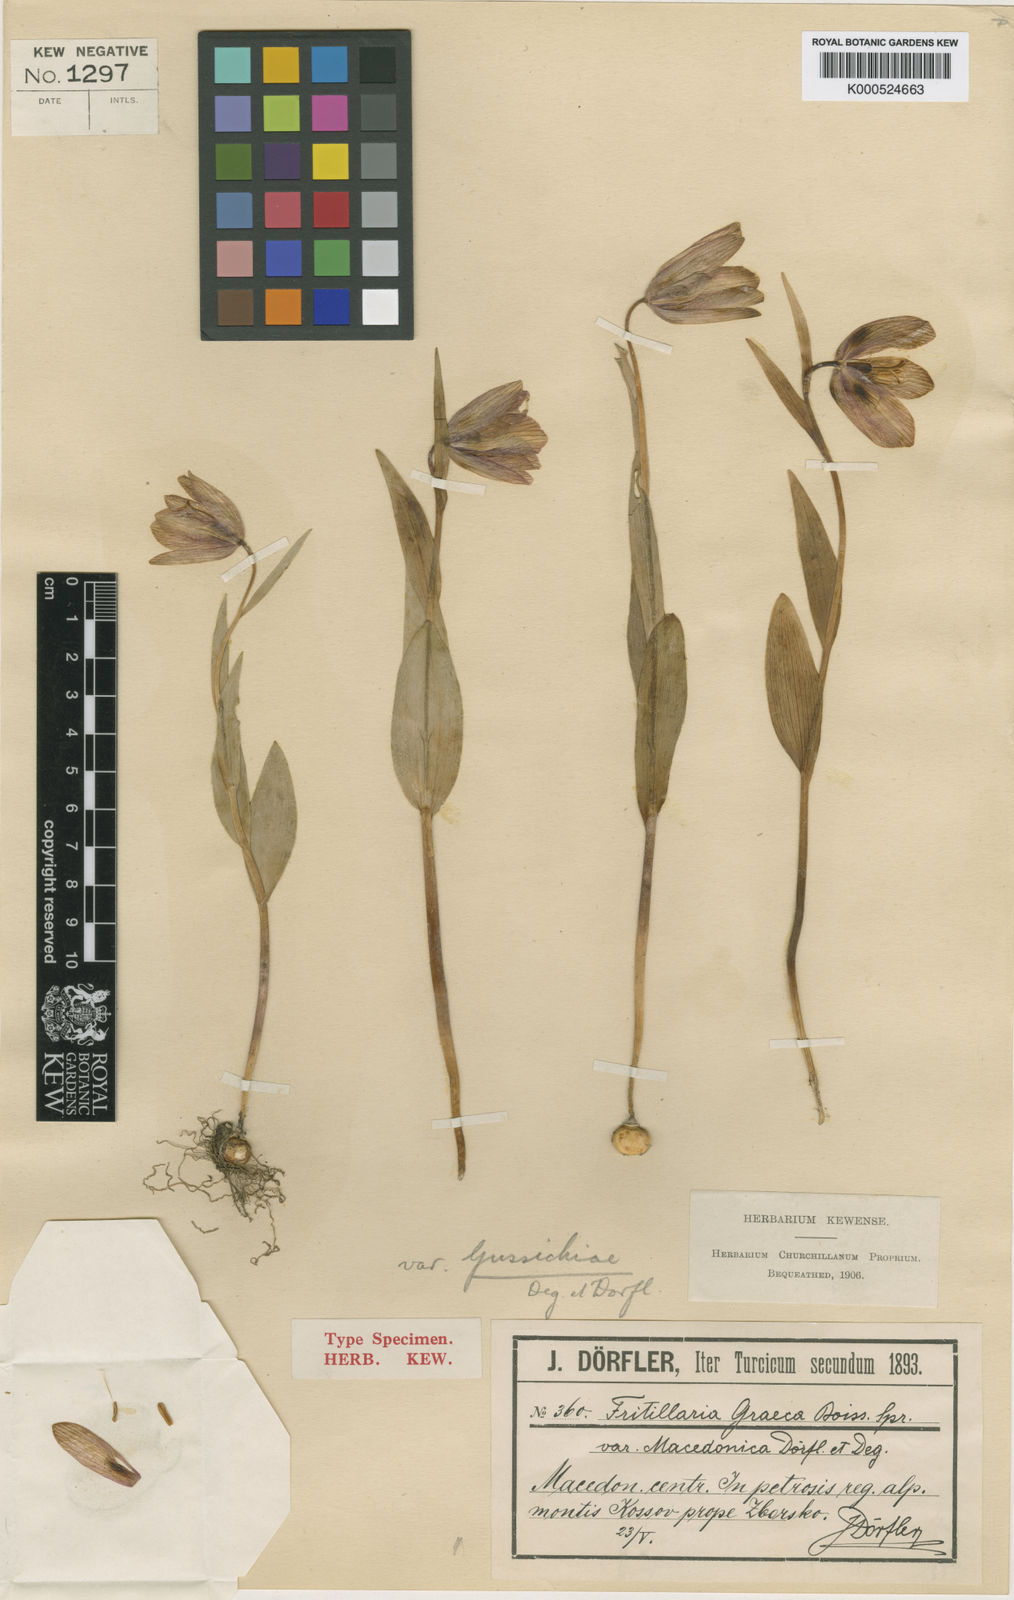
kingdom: Plantae
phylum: Tracheophyta
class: Liliopsida
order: Liliales
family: Liliaceae
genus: Fritillaria
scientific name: Fritillaria graeca
